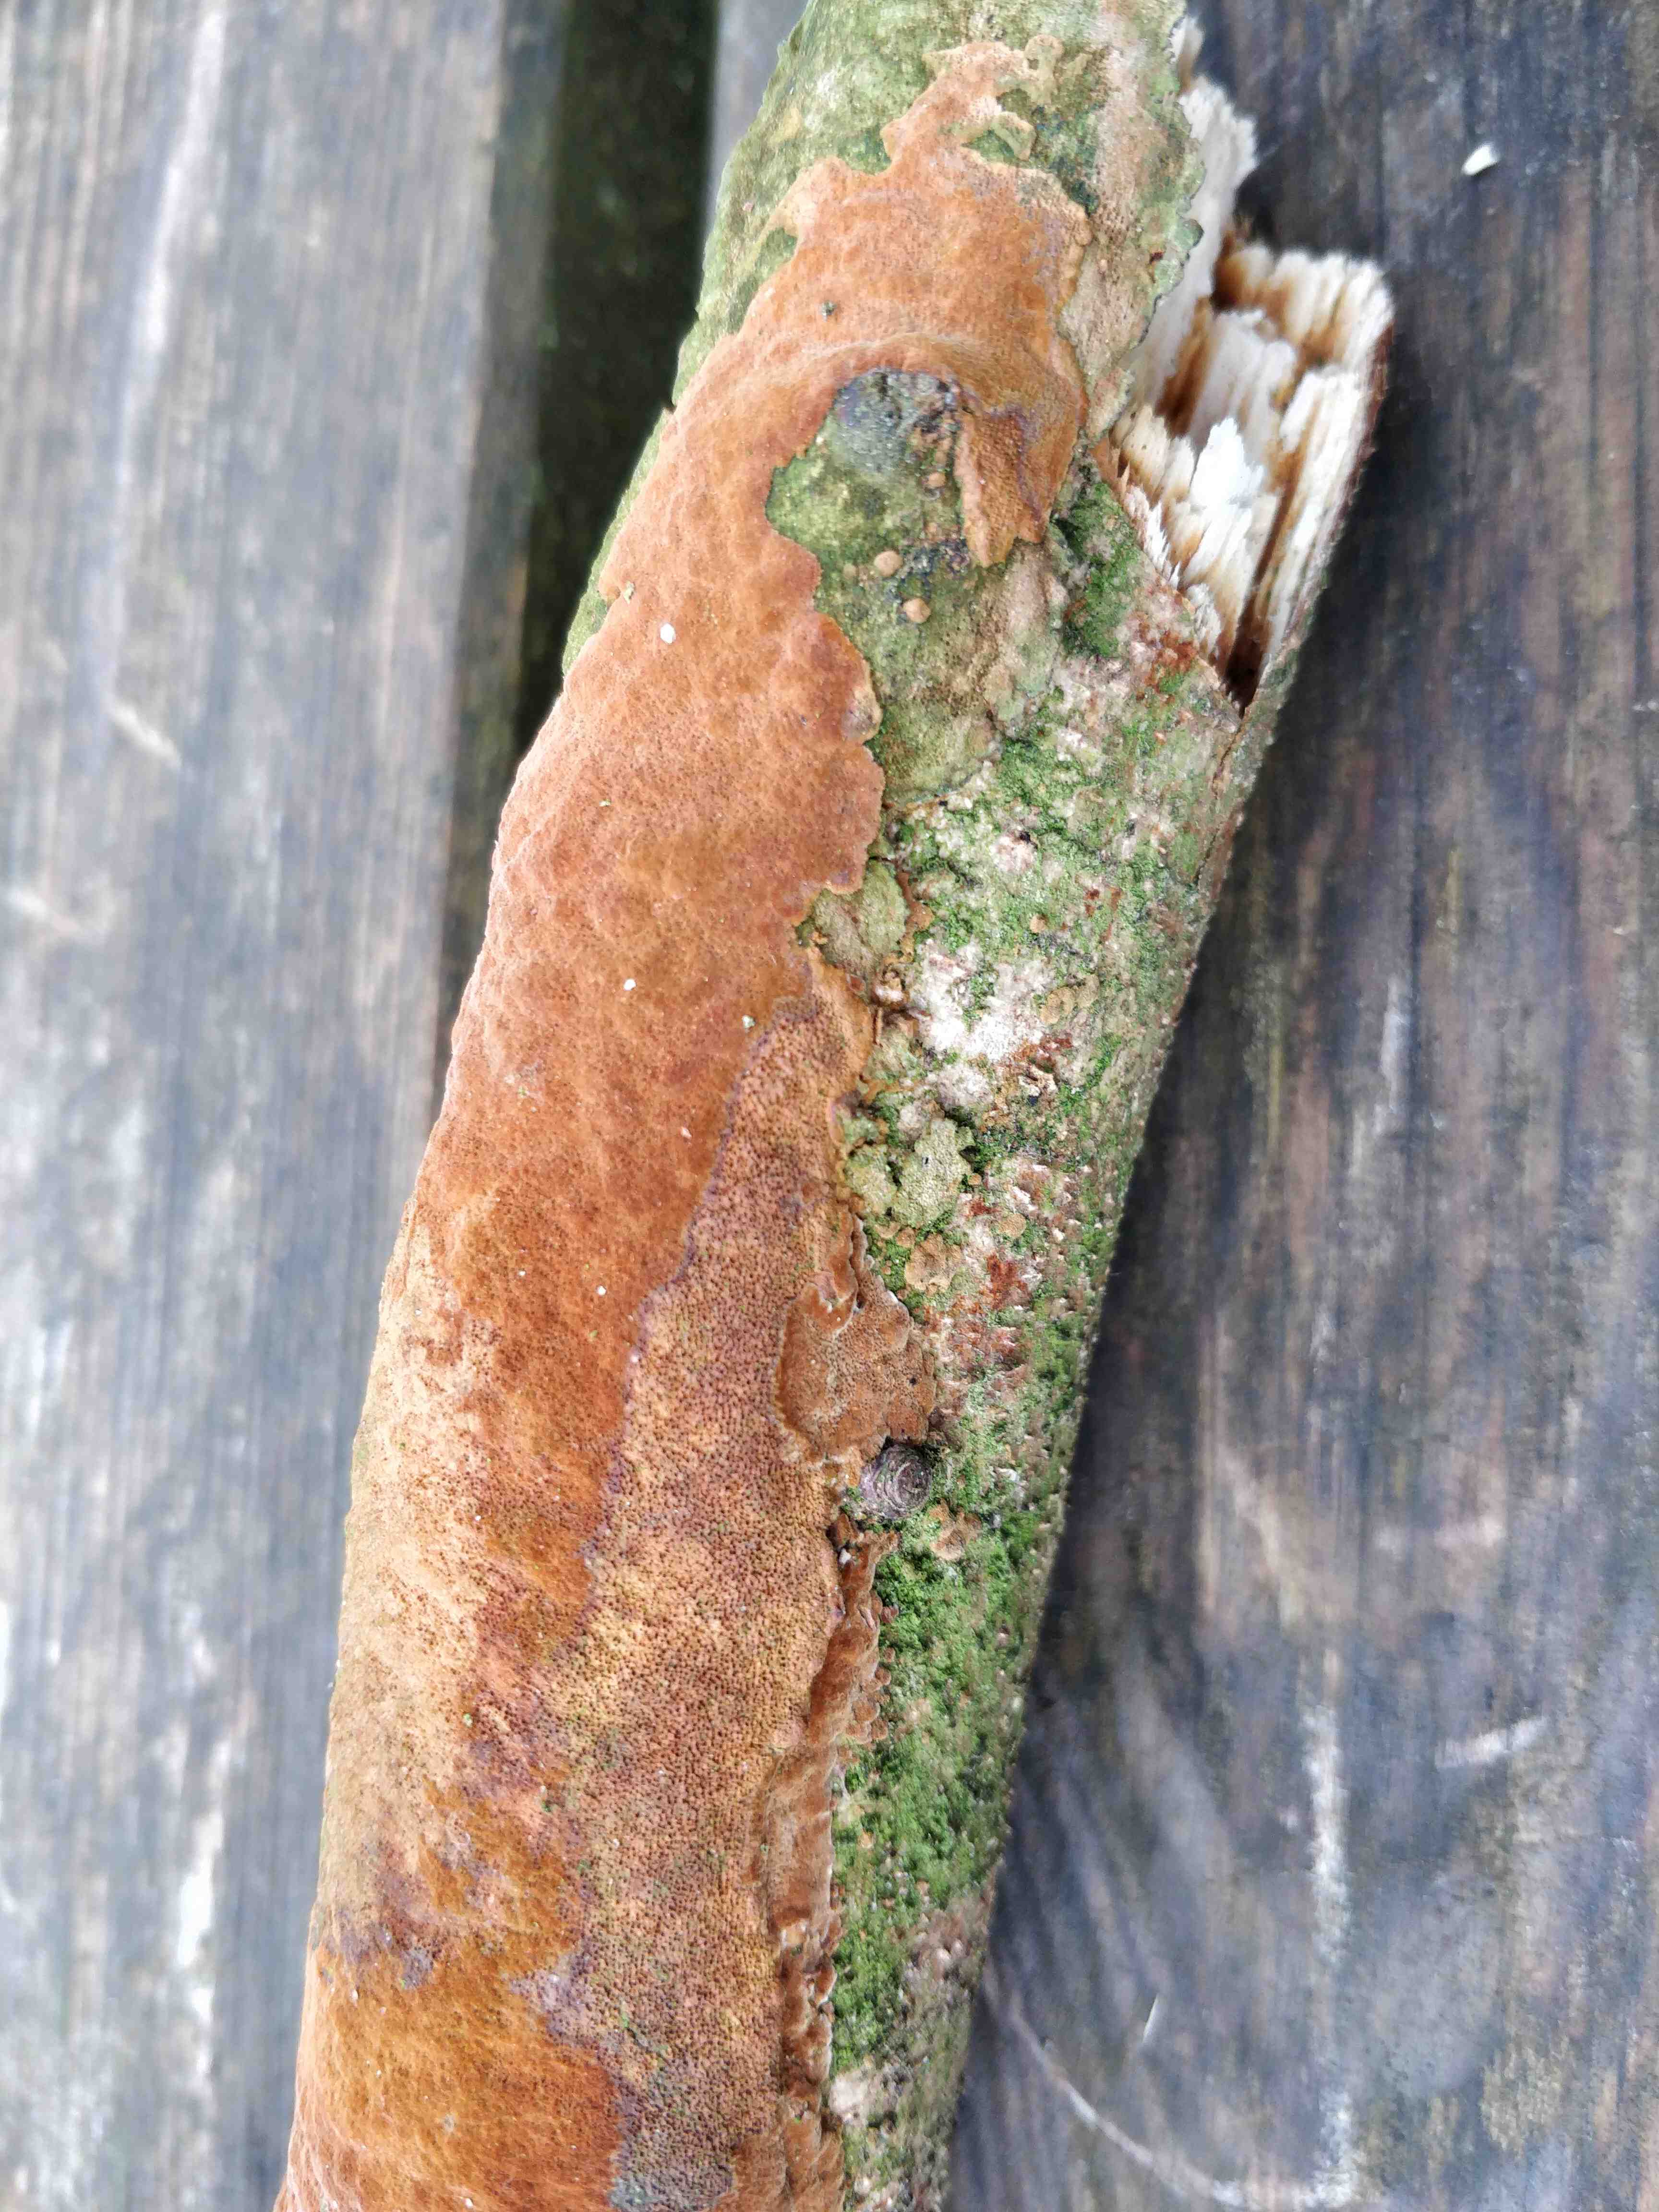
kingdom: Fungi
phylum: Basidiomycota
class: Agaricomycetes
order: Hymenochaetales
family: Hymenochaetaceae
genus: Fuscoporia
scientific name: Fuscoporia
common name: Ildporesvamp
